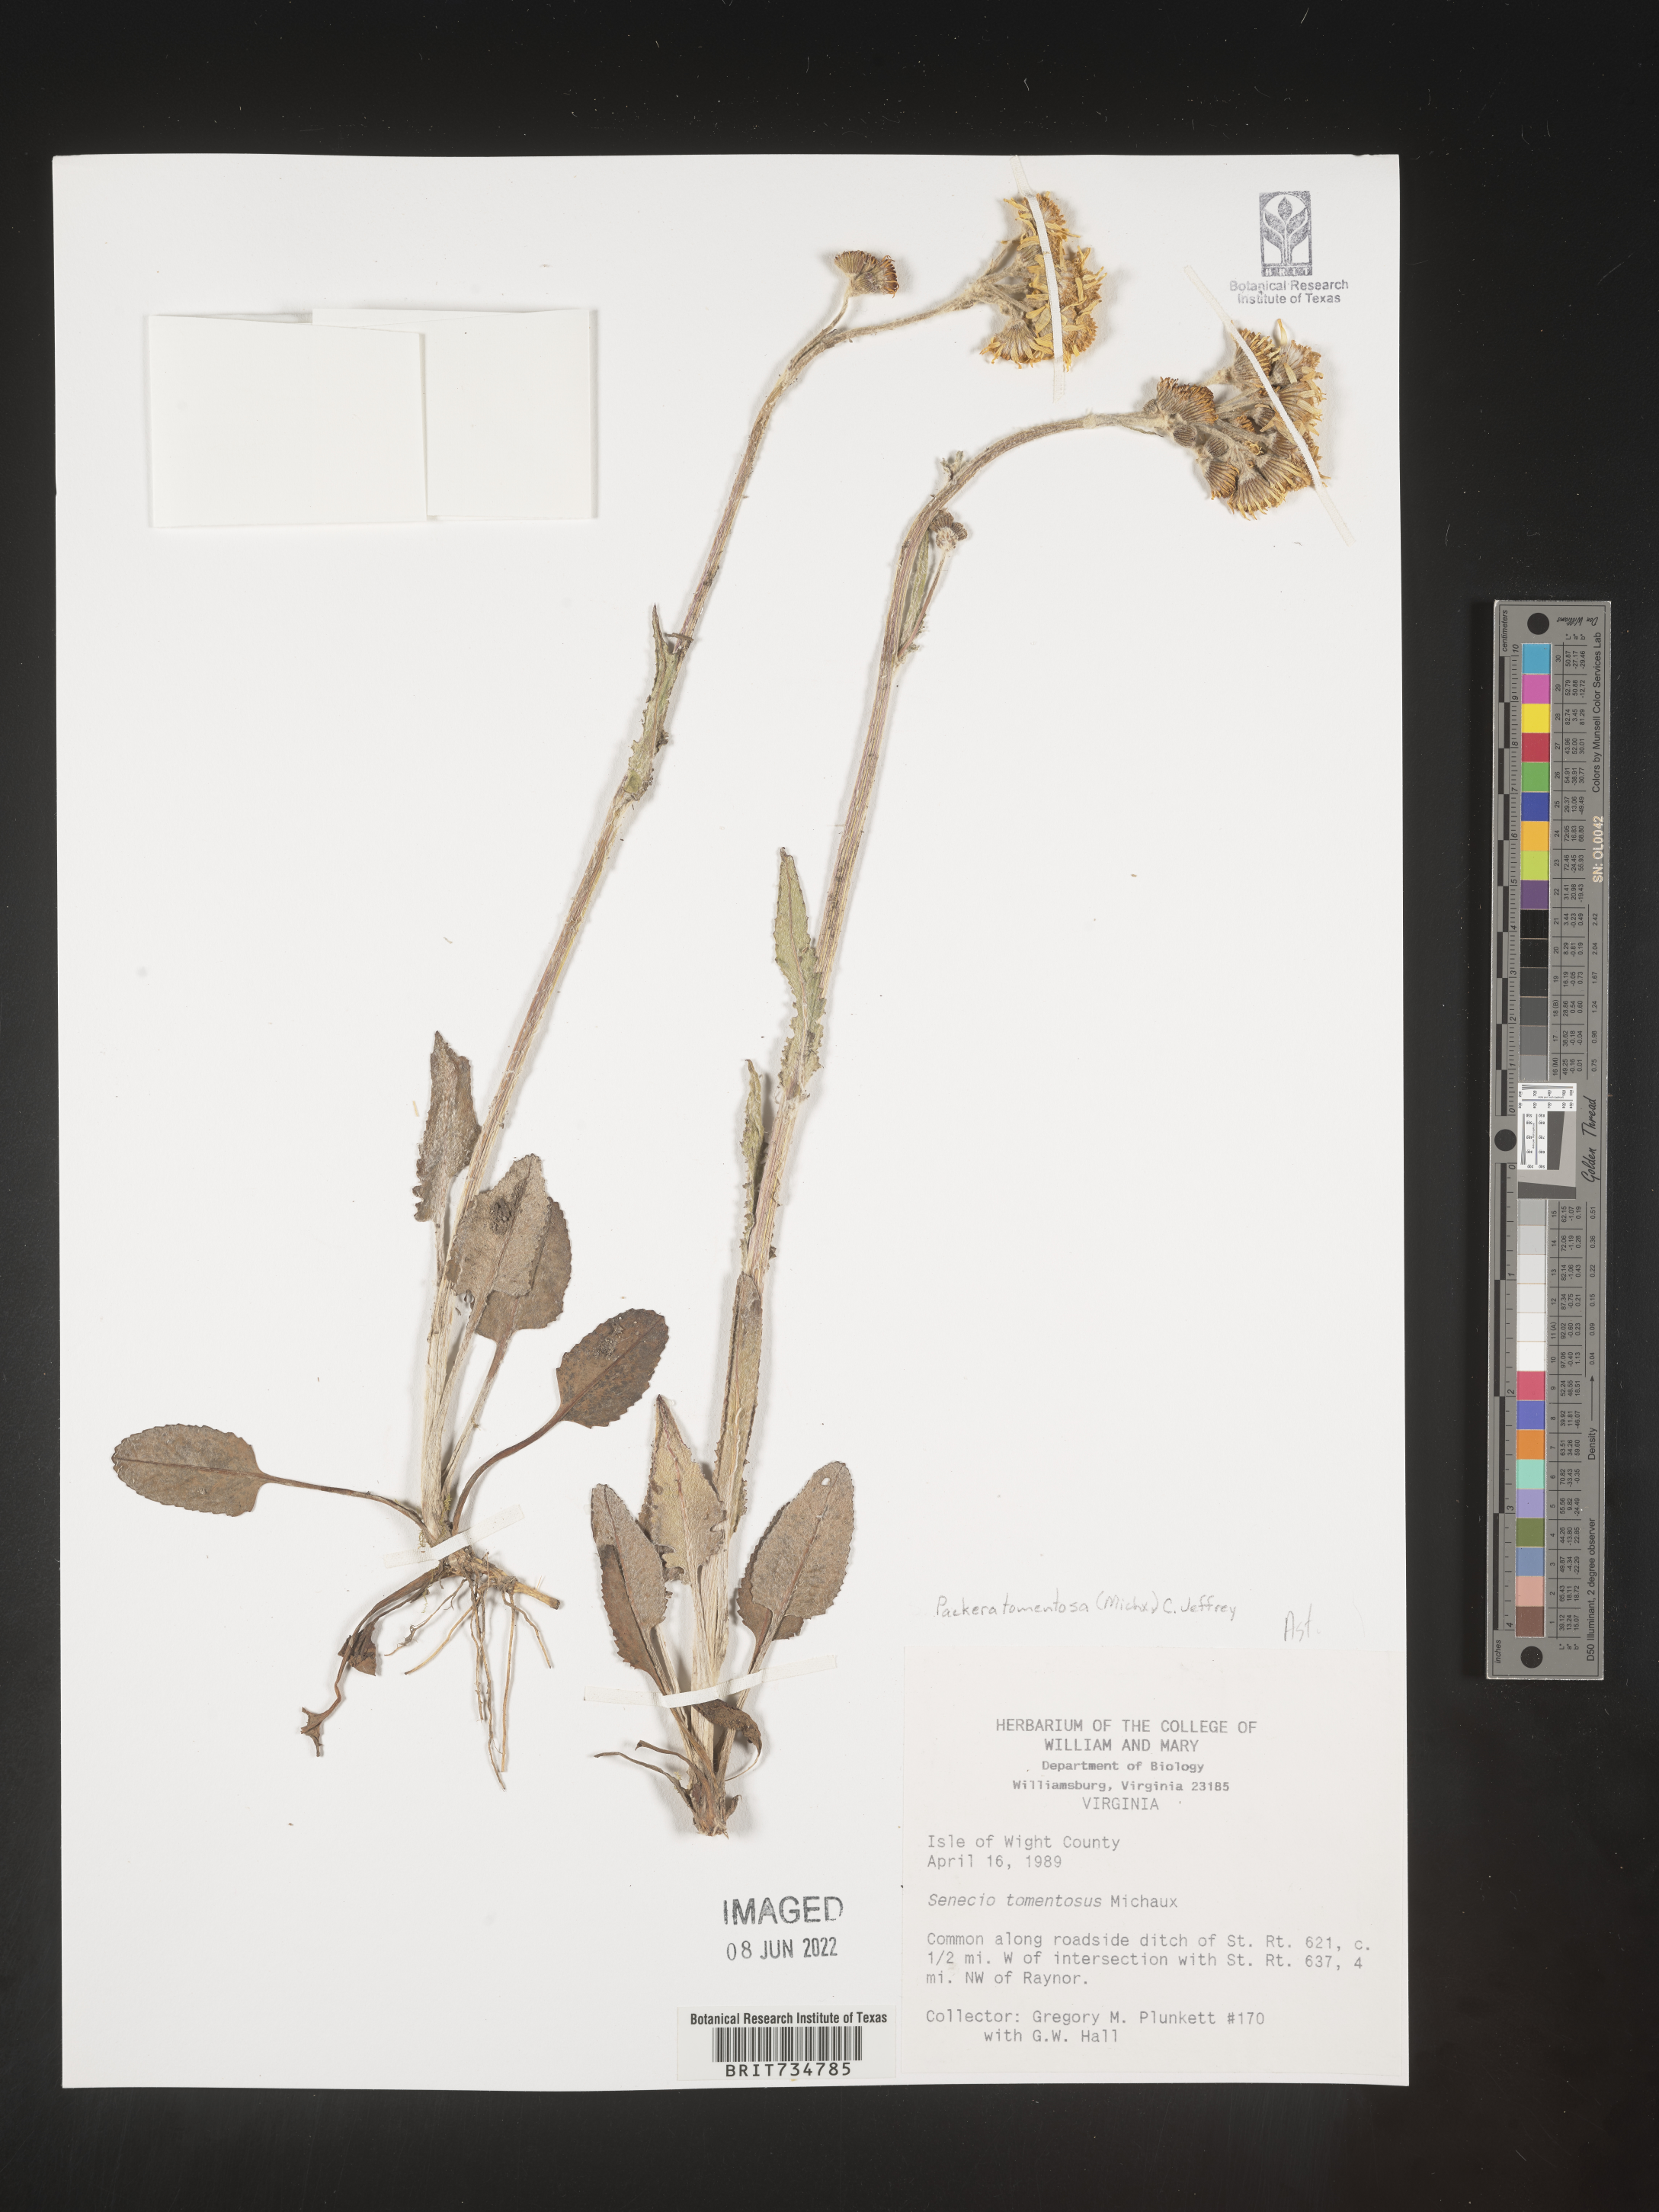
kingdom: Plantae
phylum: Tracheophyta
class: Magnoliopsida
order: Asterales
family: Asteraceae
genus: Packera
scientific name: Packera dubia
